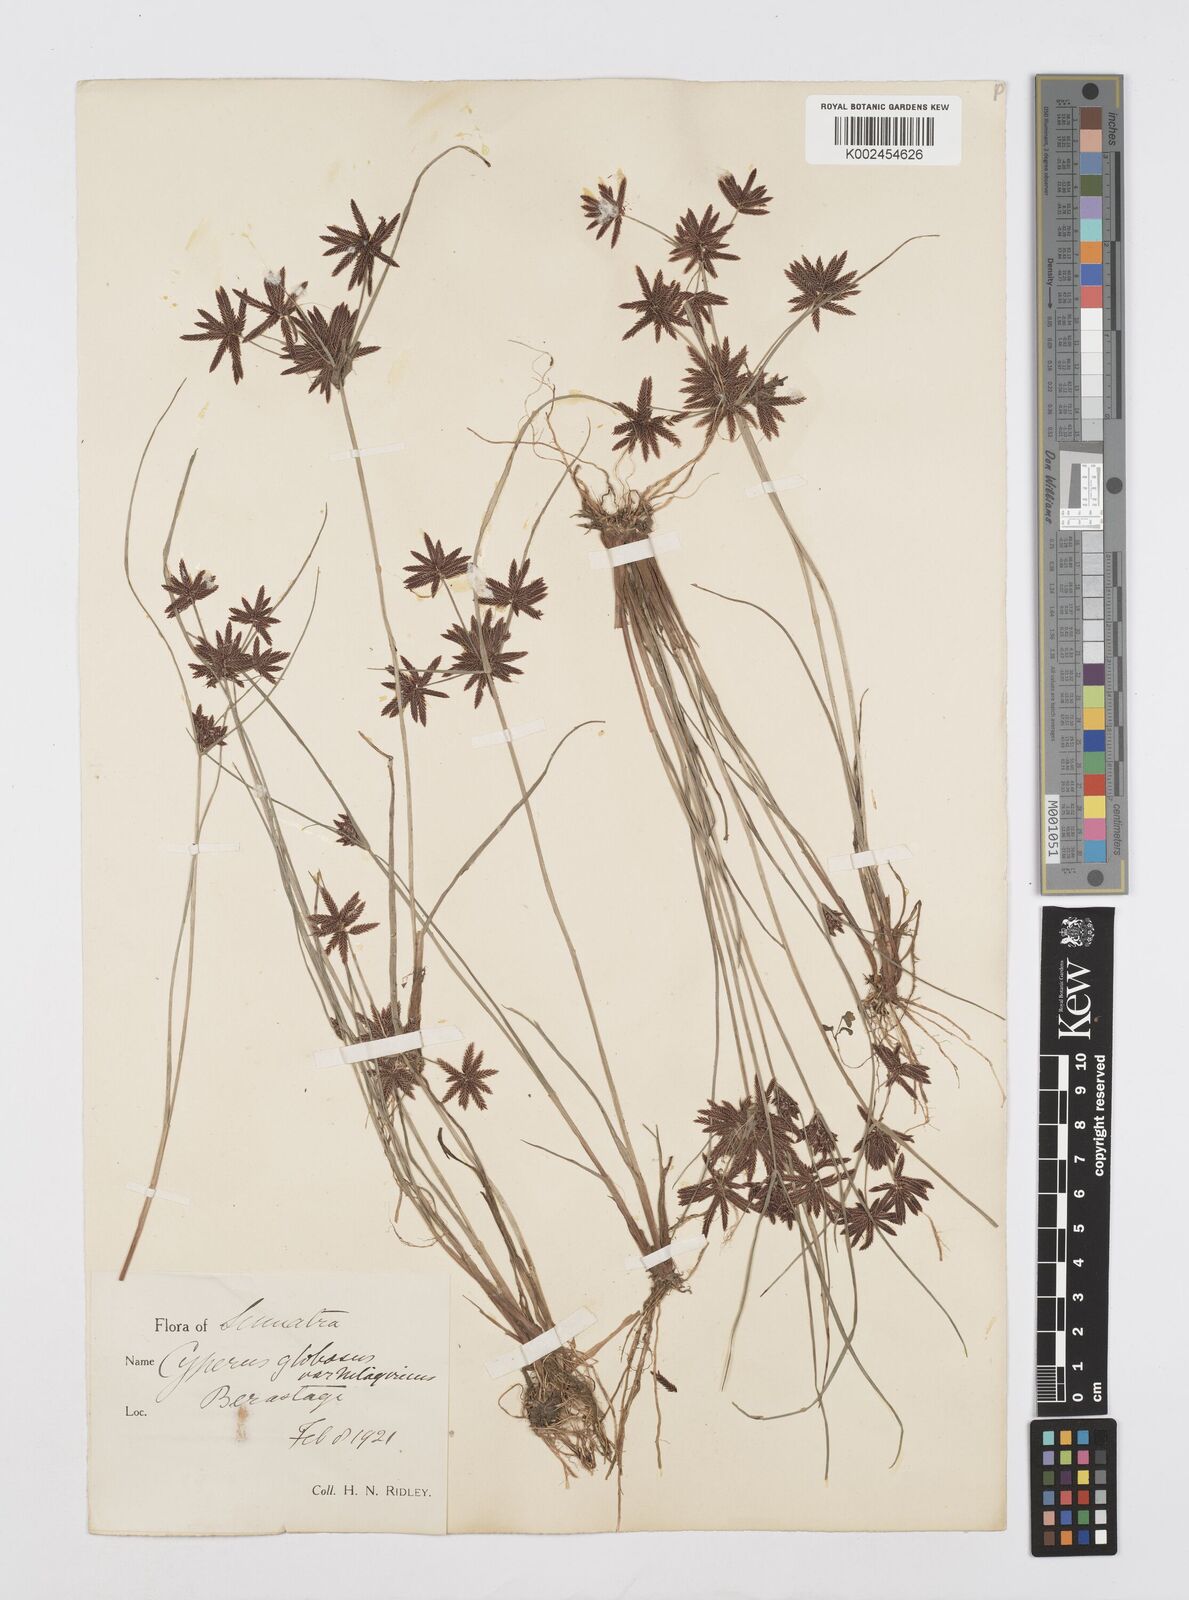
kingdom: Plantae
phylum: Tracheophyta
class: Liliopsida
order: Poales
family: Cyperaceae
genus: Cyperus
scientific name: Cyperus flavidus
